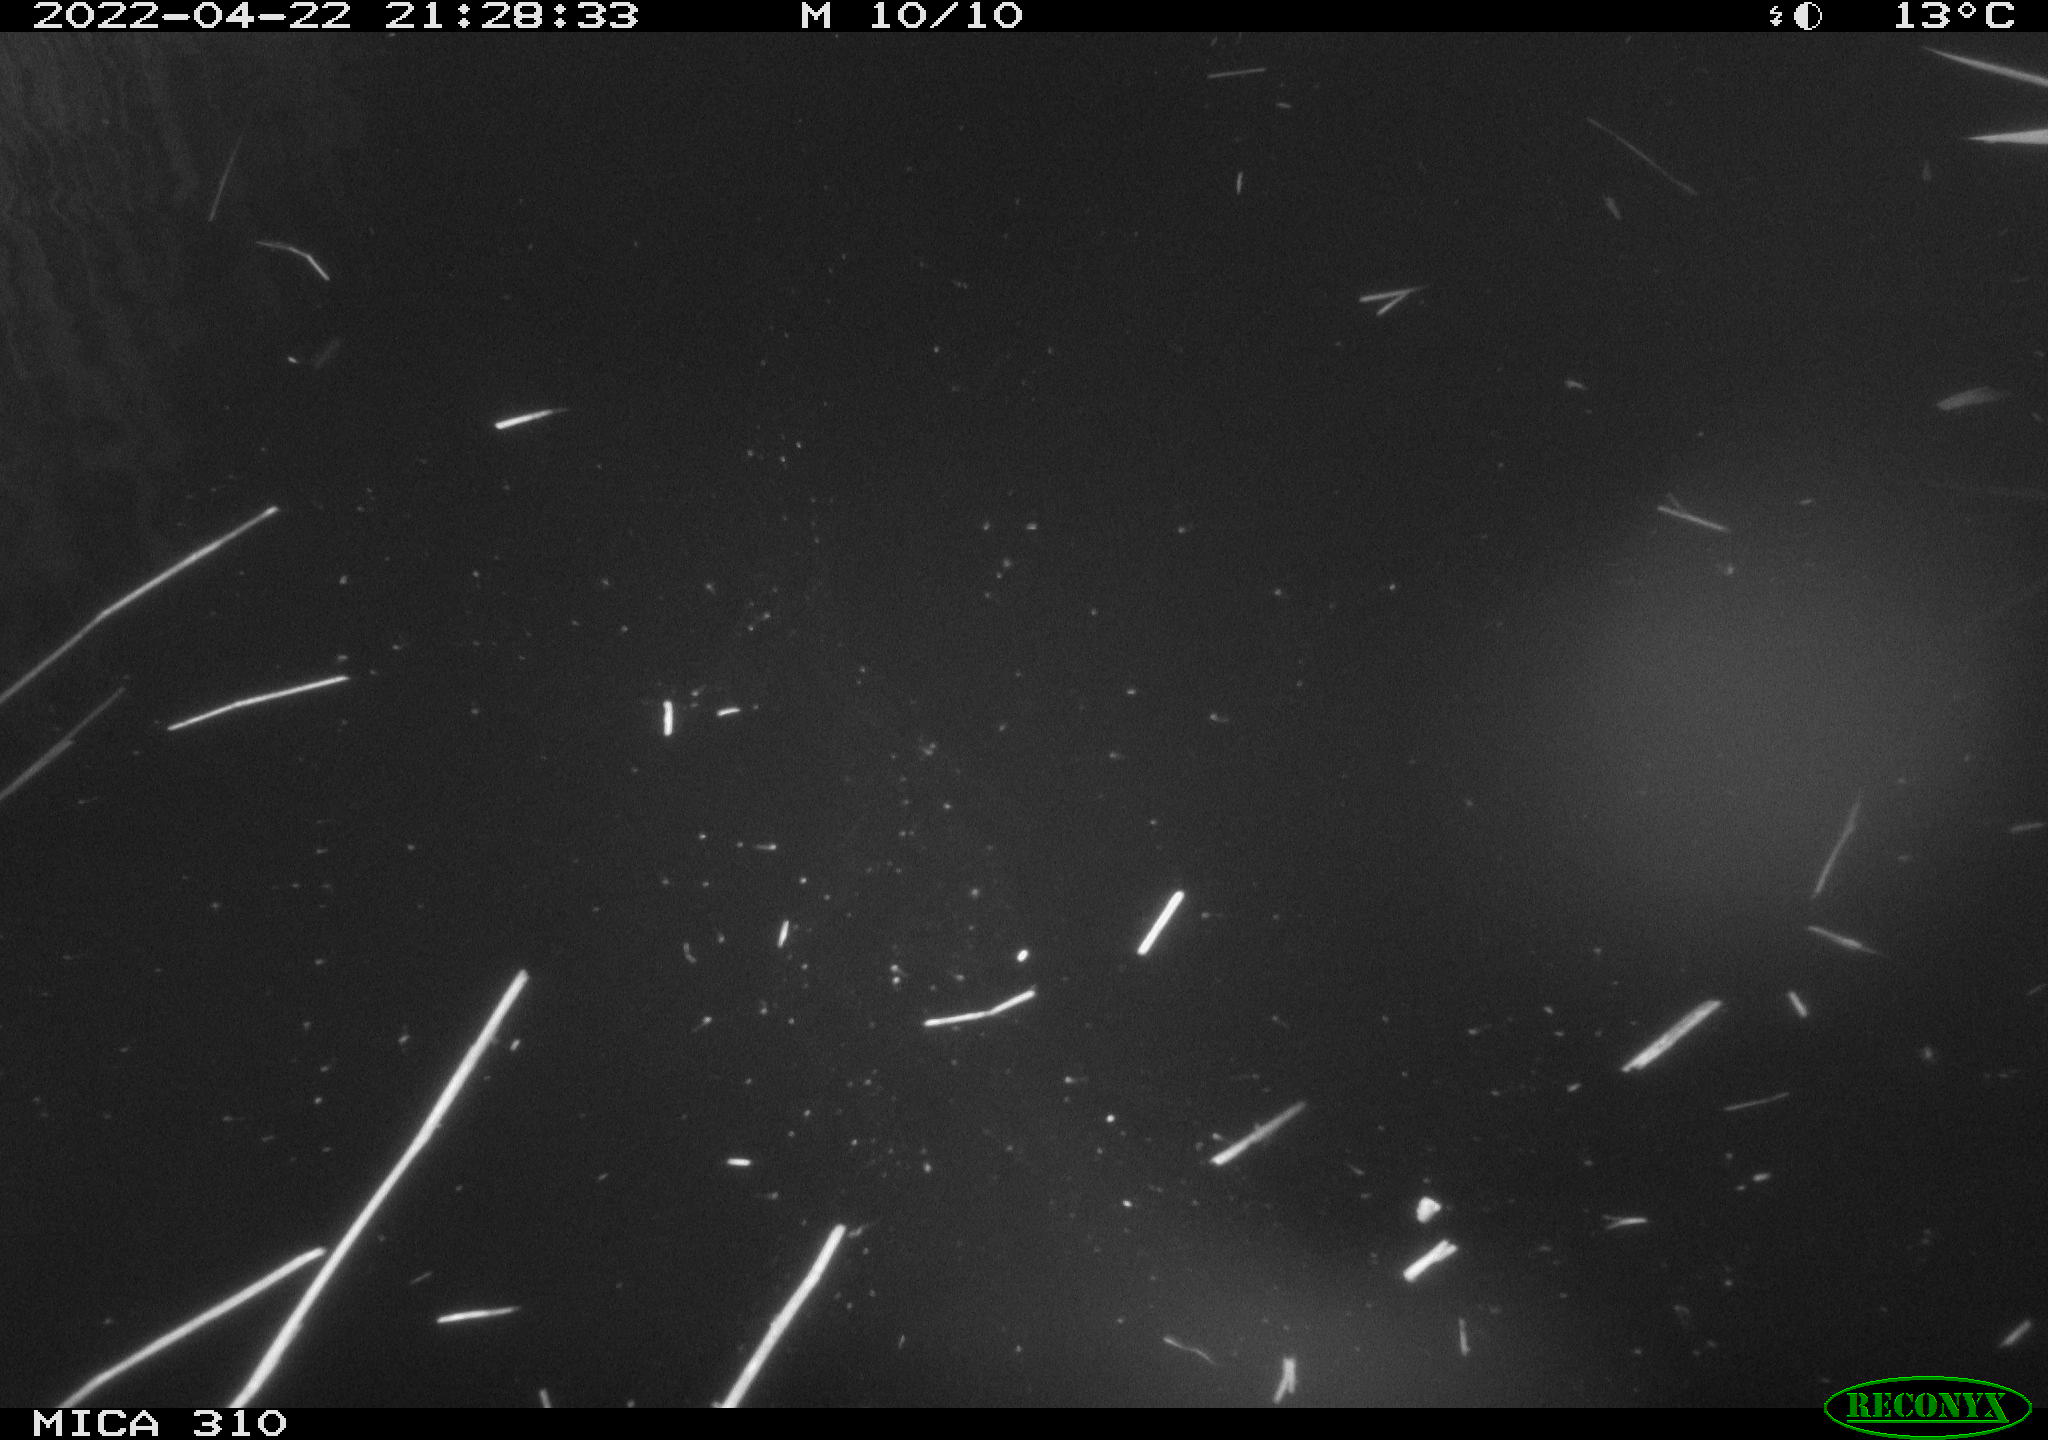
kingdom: Animalia
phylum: Chordata
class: Aves
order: Anseriformes
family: Anatidae
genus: Anas
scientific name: Anas platyrhynchos
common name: Mallard
